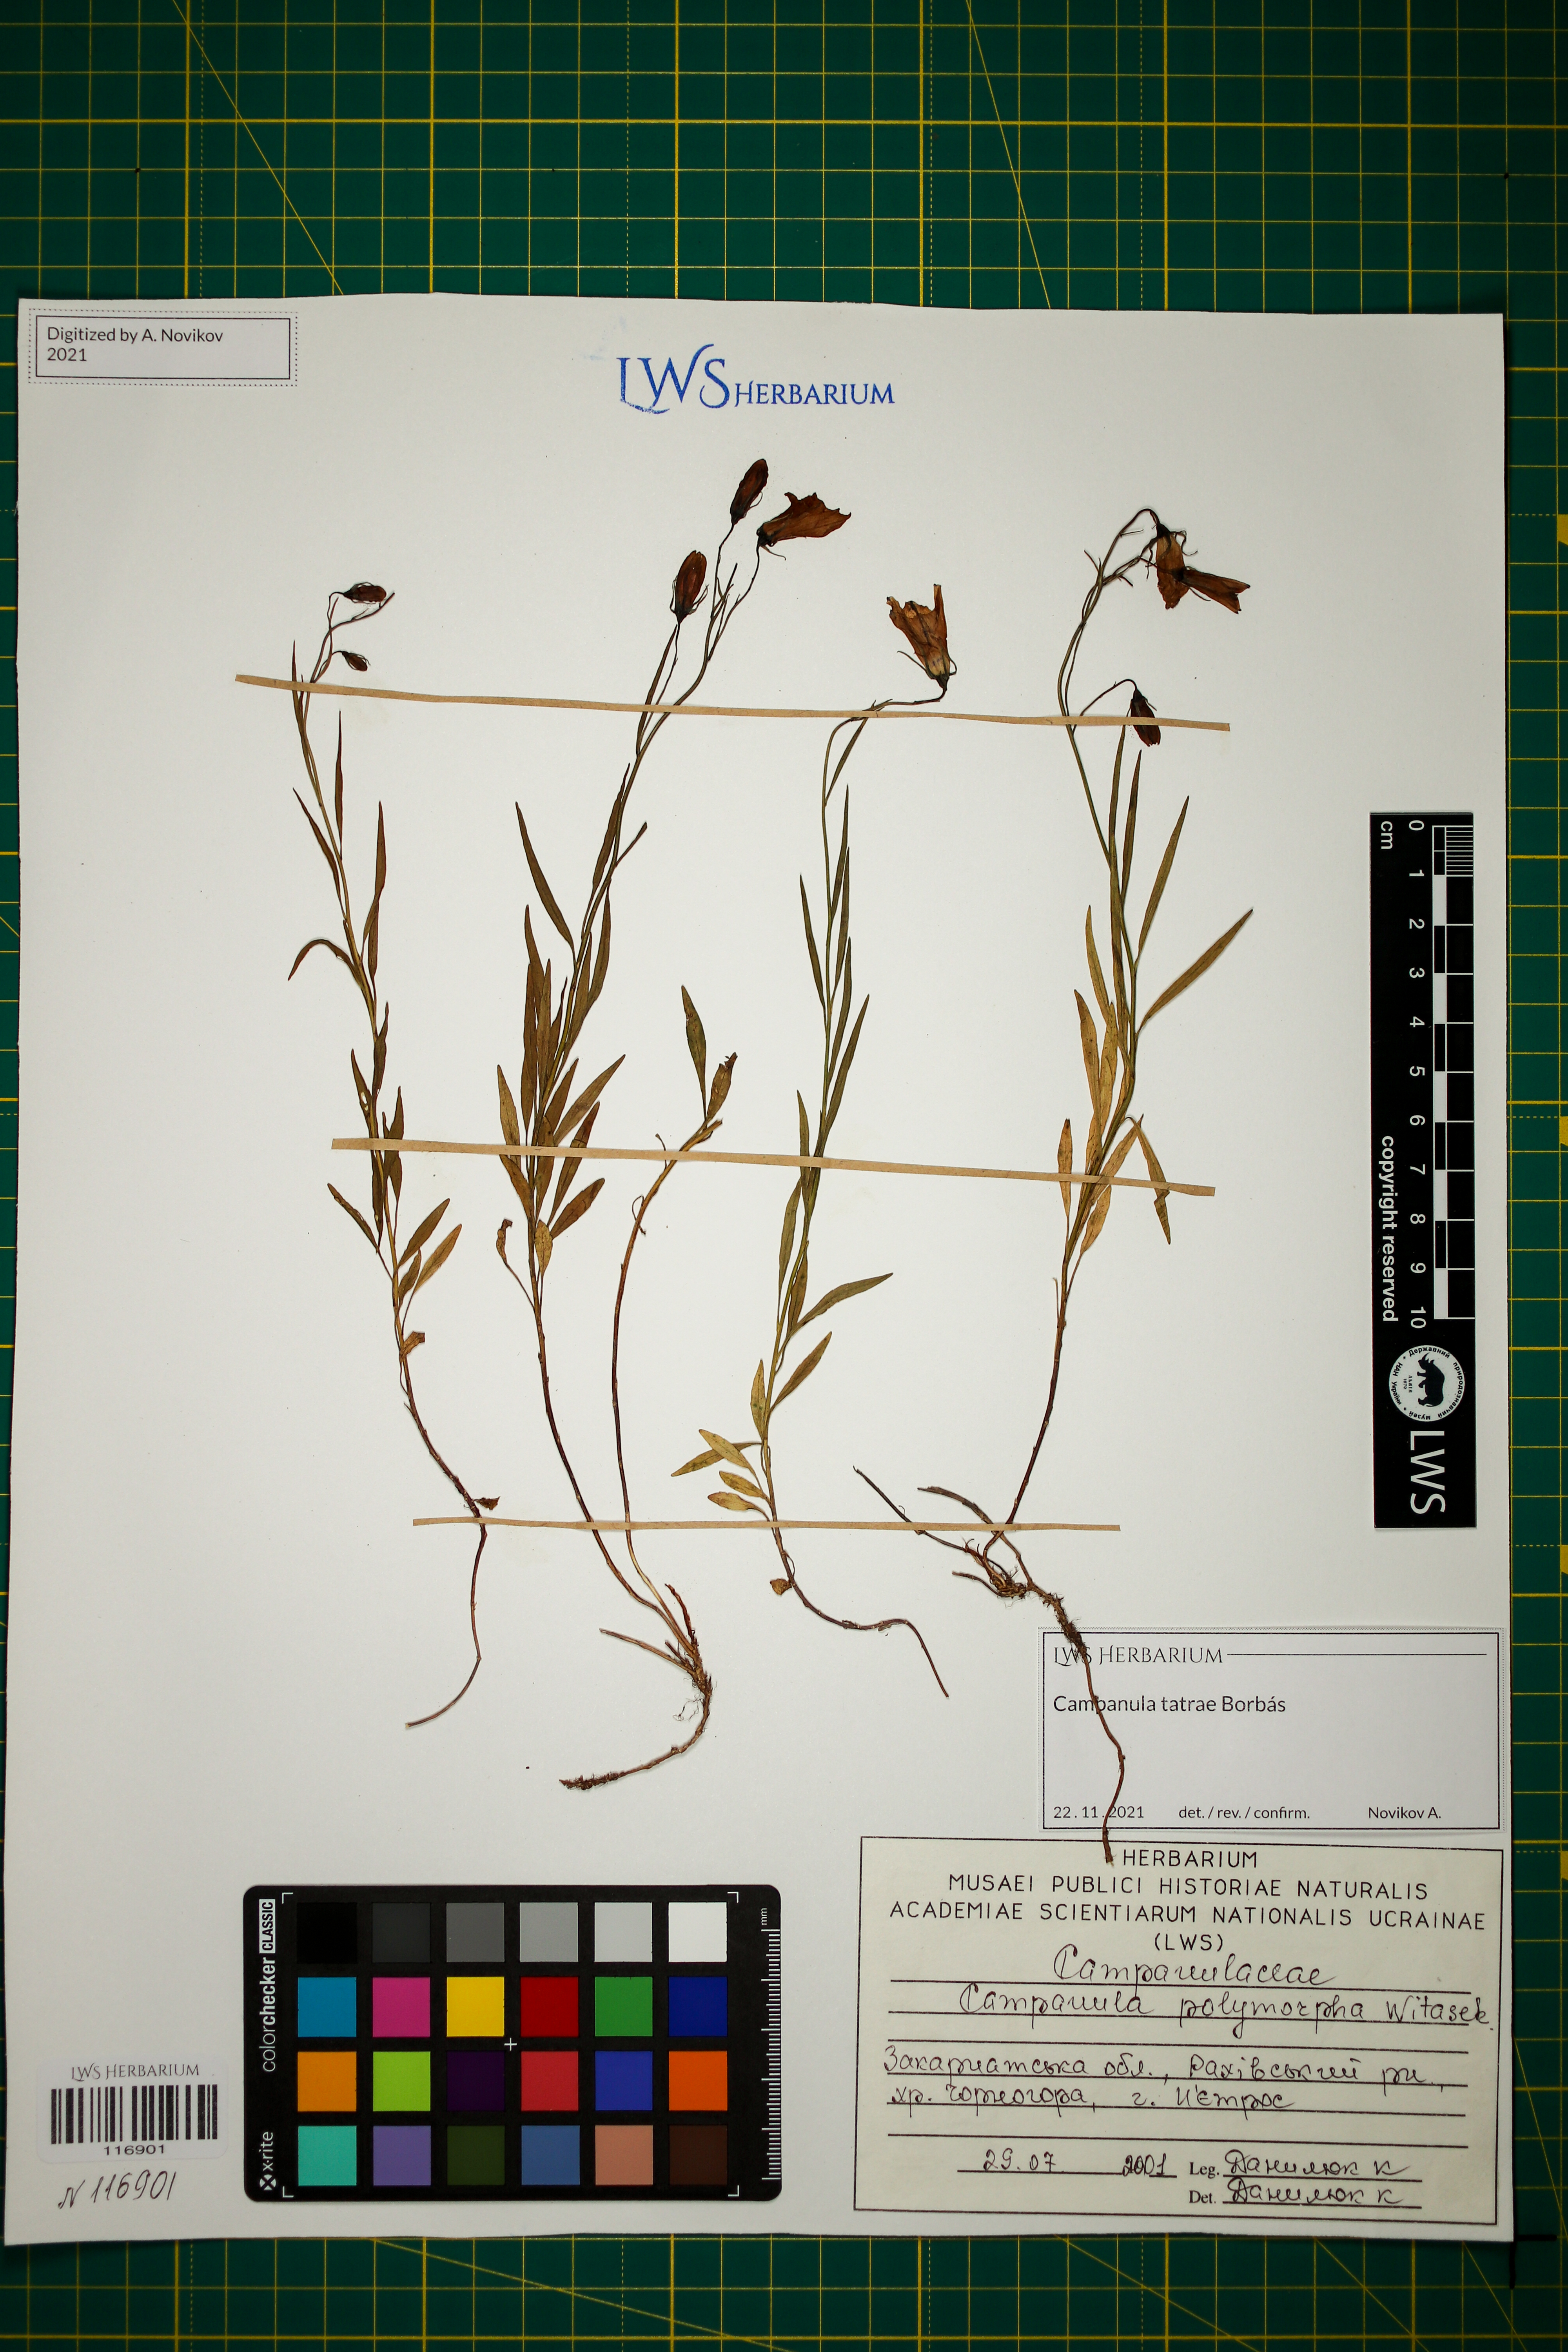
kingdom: Plantae
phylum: Tracheophyta
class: Magnoliopsida
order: Asterales
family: Campanulaceae
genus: Campanula
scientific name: Campanula tatrae
